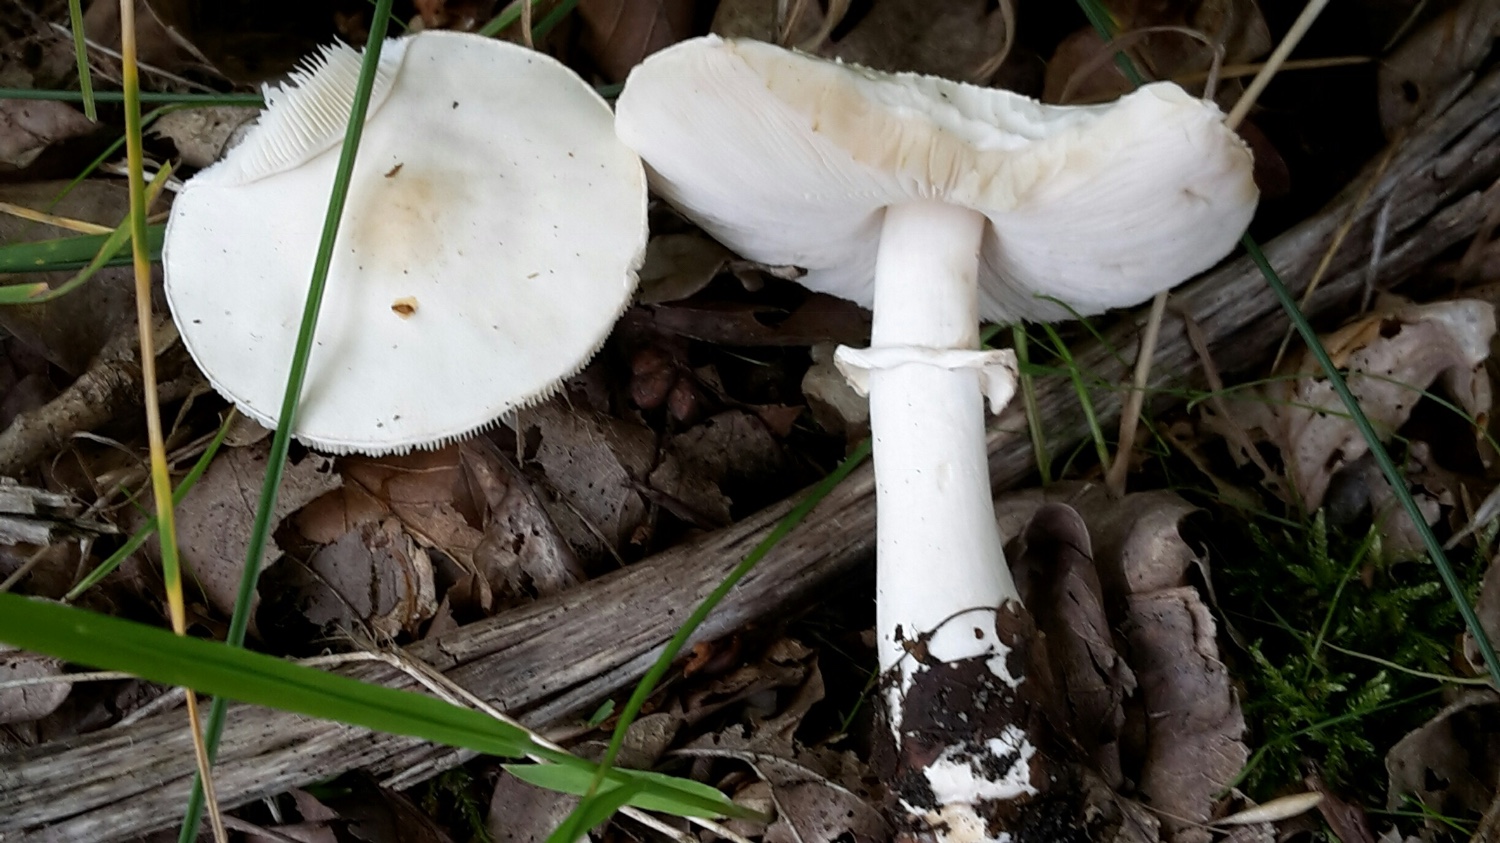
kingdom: Fungi
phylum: Basidiomycota
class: Agaricomycetes
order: Agaricales
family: Agaricaceae
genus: Leucoagaricus
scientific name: Leucoagaricus leucothites
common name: rosabladet silkehat
